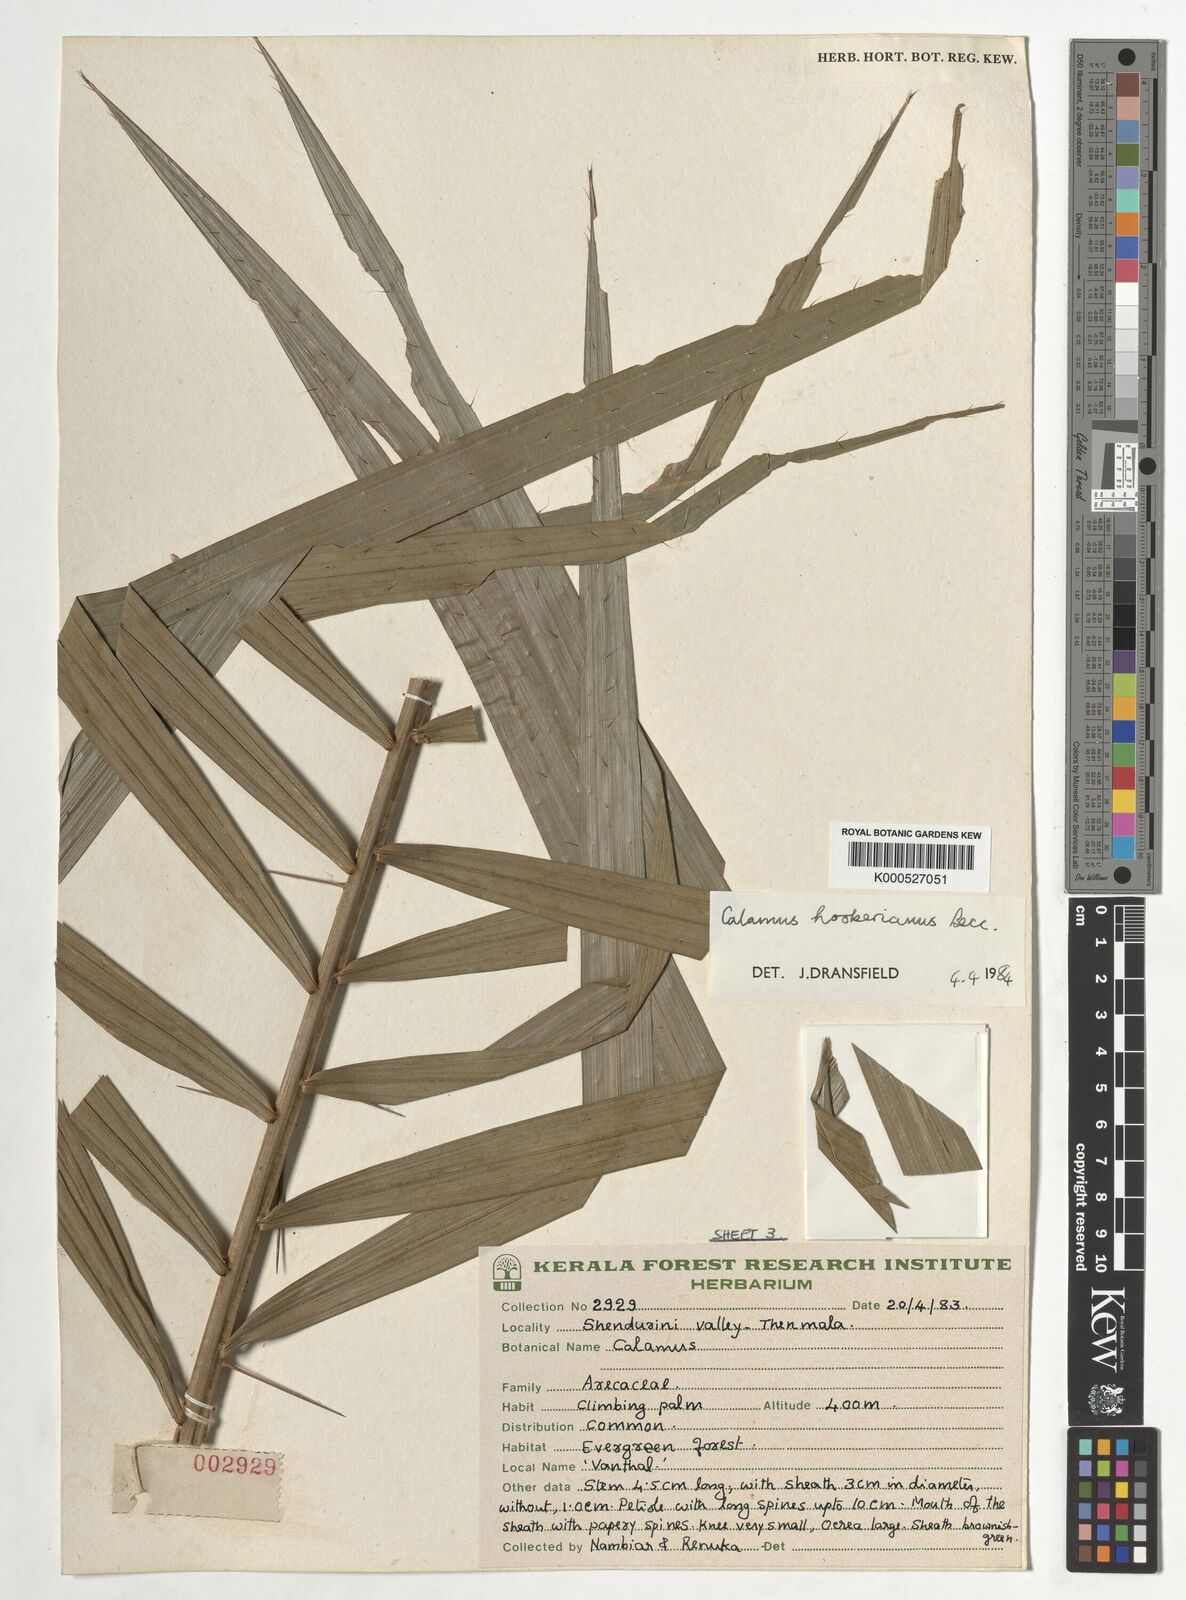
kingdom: Plantae
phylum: Tracheophyta
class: Liliopsida
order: Arecales
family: Arecaceae
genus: Calamus
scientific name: Calamus hookerianus
